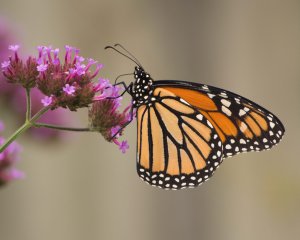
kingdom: Animalia
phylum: Arthropoda
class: Insecta
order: Lepidoptera
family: Nymphalidae
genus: Danaus
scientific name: Danaus plexippus
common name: Monarch
